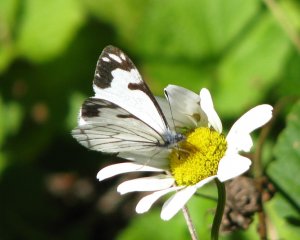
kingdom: Animalia
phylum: Arthropoda
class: Insecta
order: Lepidoptera
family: Pieridae
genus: Neophasia
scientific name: Neophasia menapia
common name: Pine White
